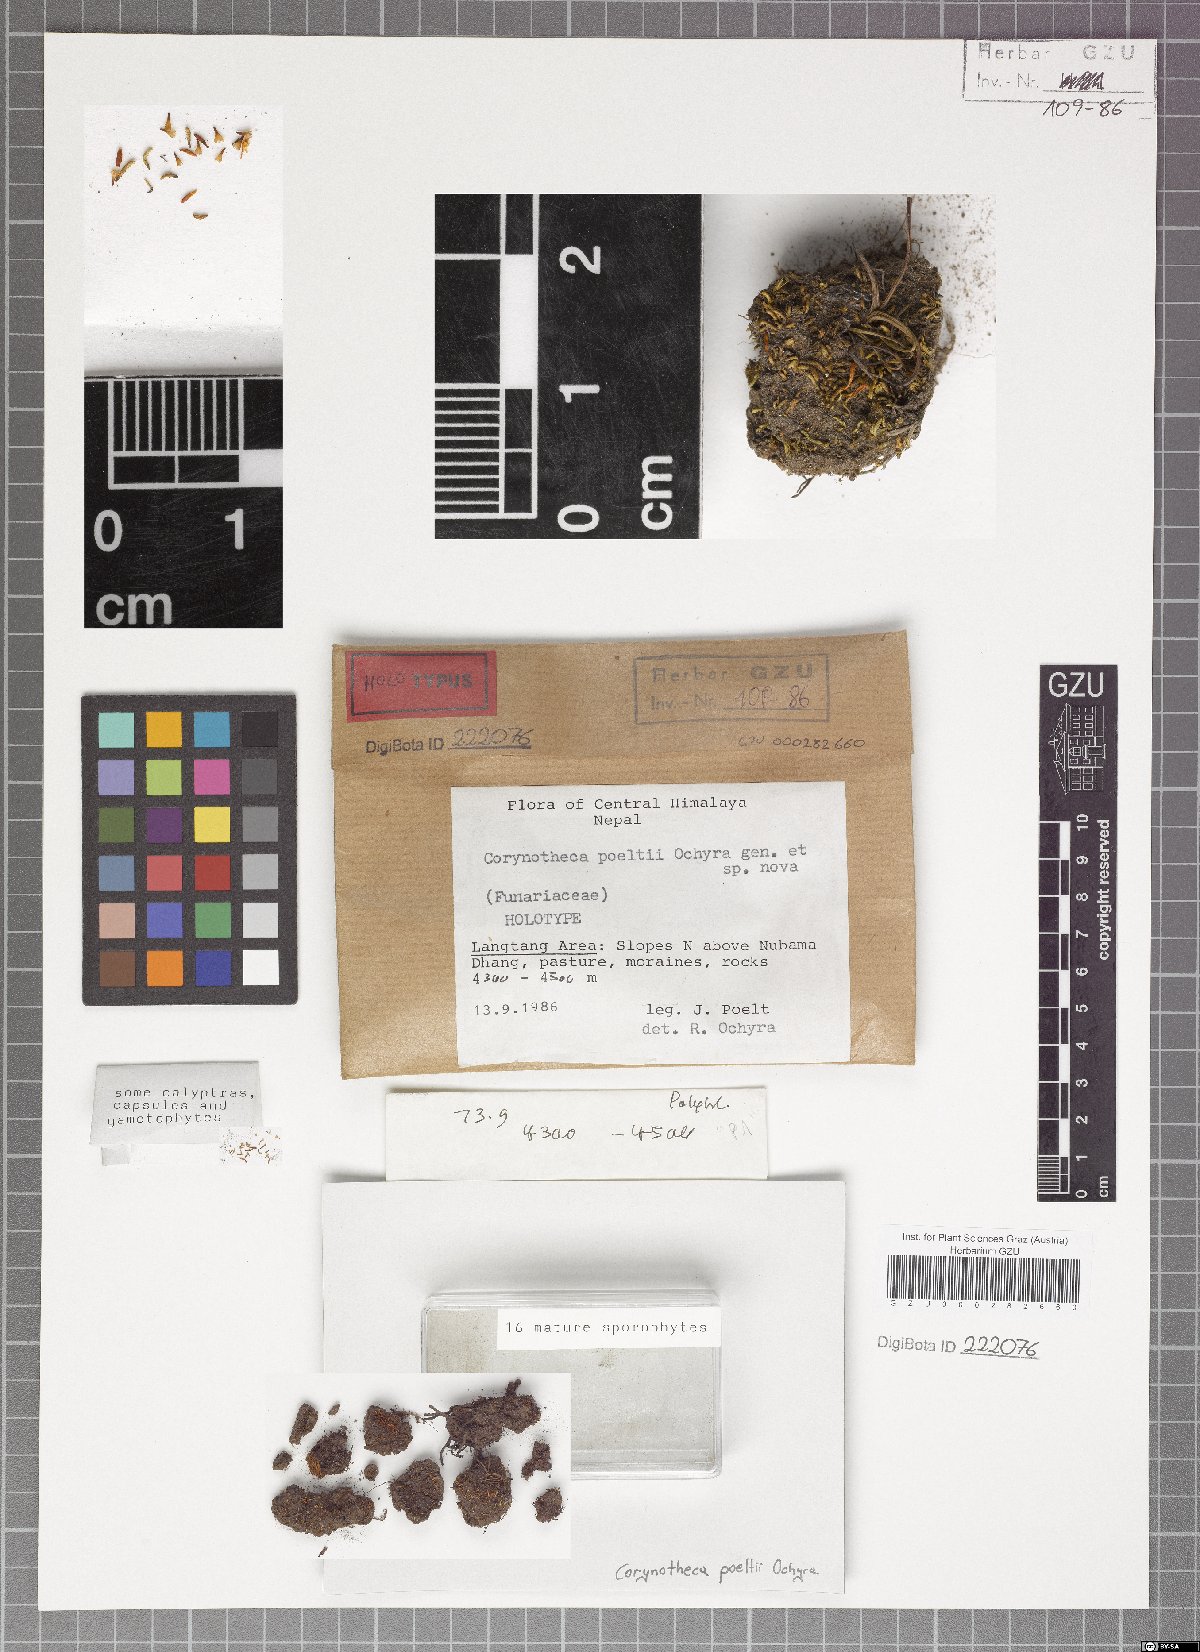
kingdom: Plantae
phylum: Bryophyta
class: Bryopsida
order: Funariales
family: Funariaceae
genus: Clavitheca
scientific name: Clavitheca poeltii
